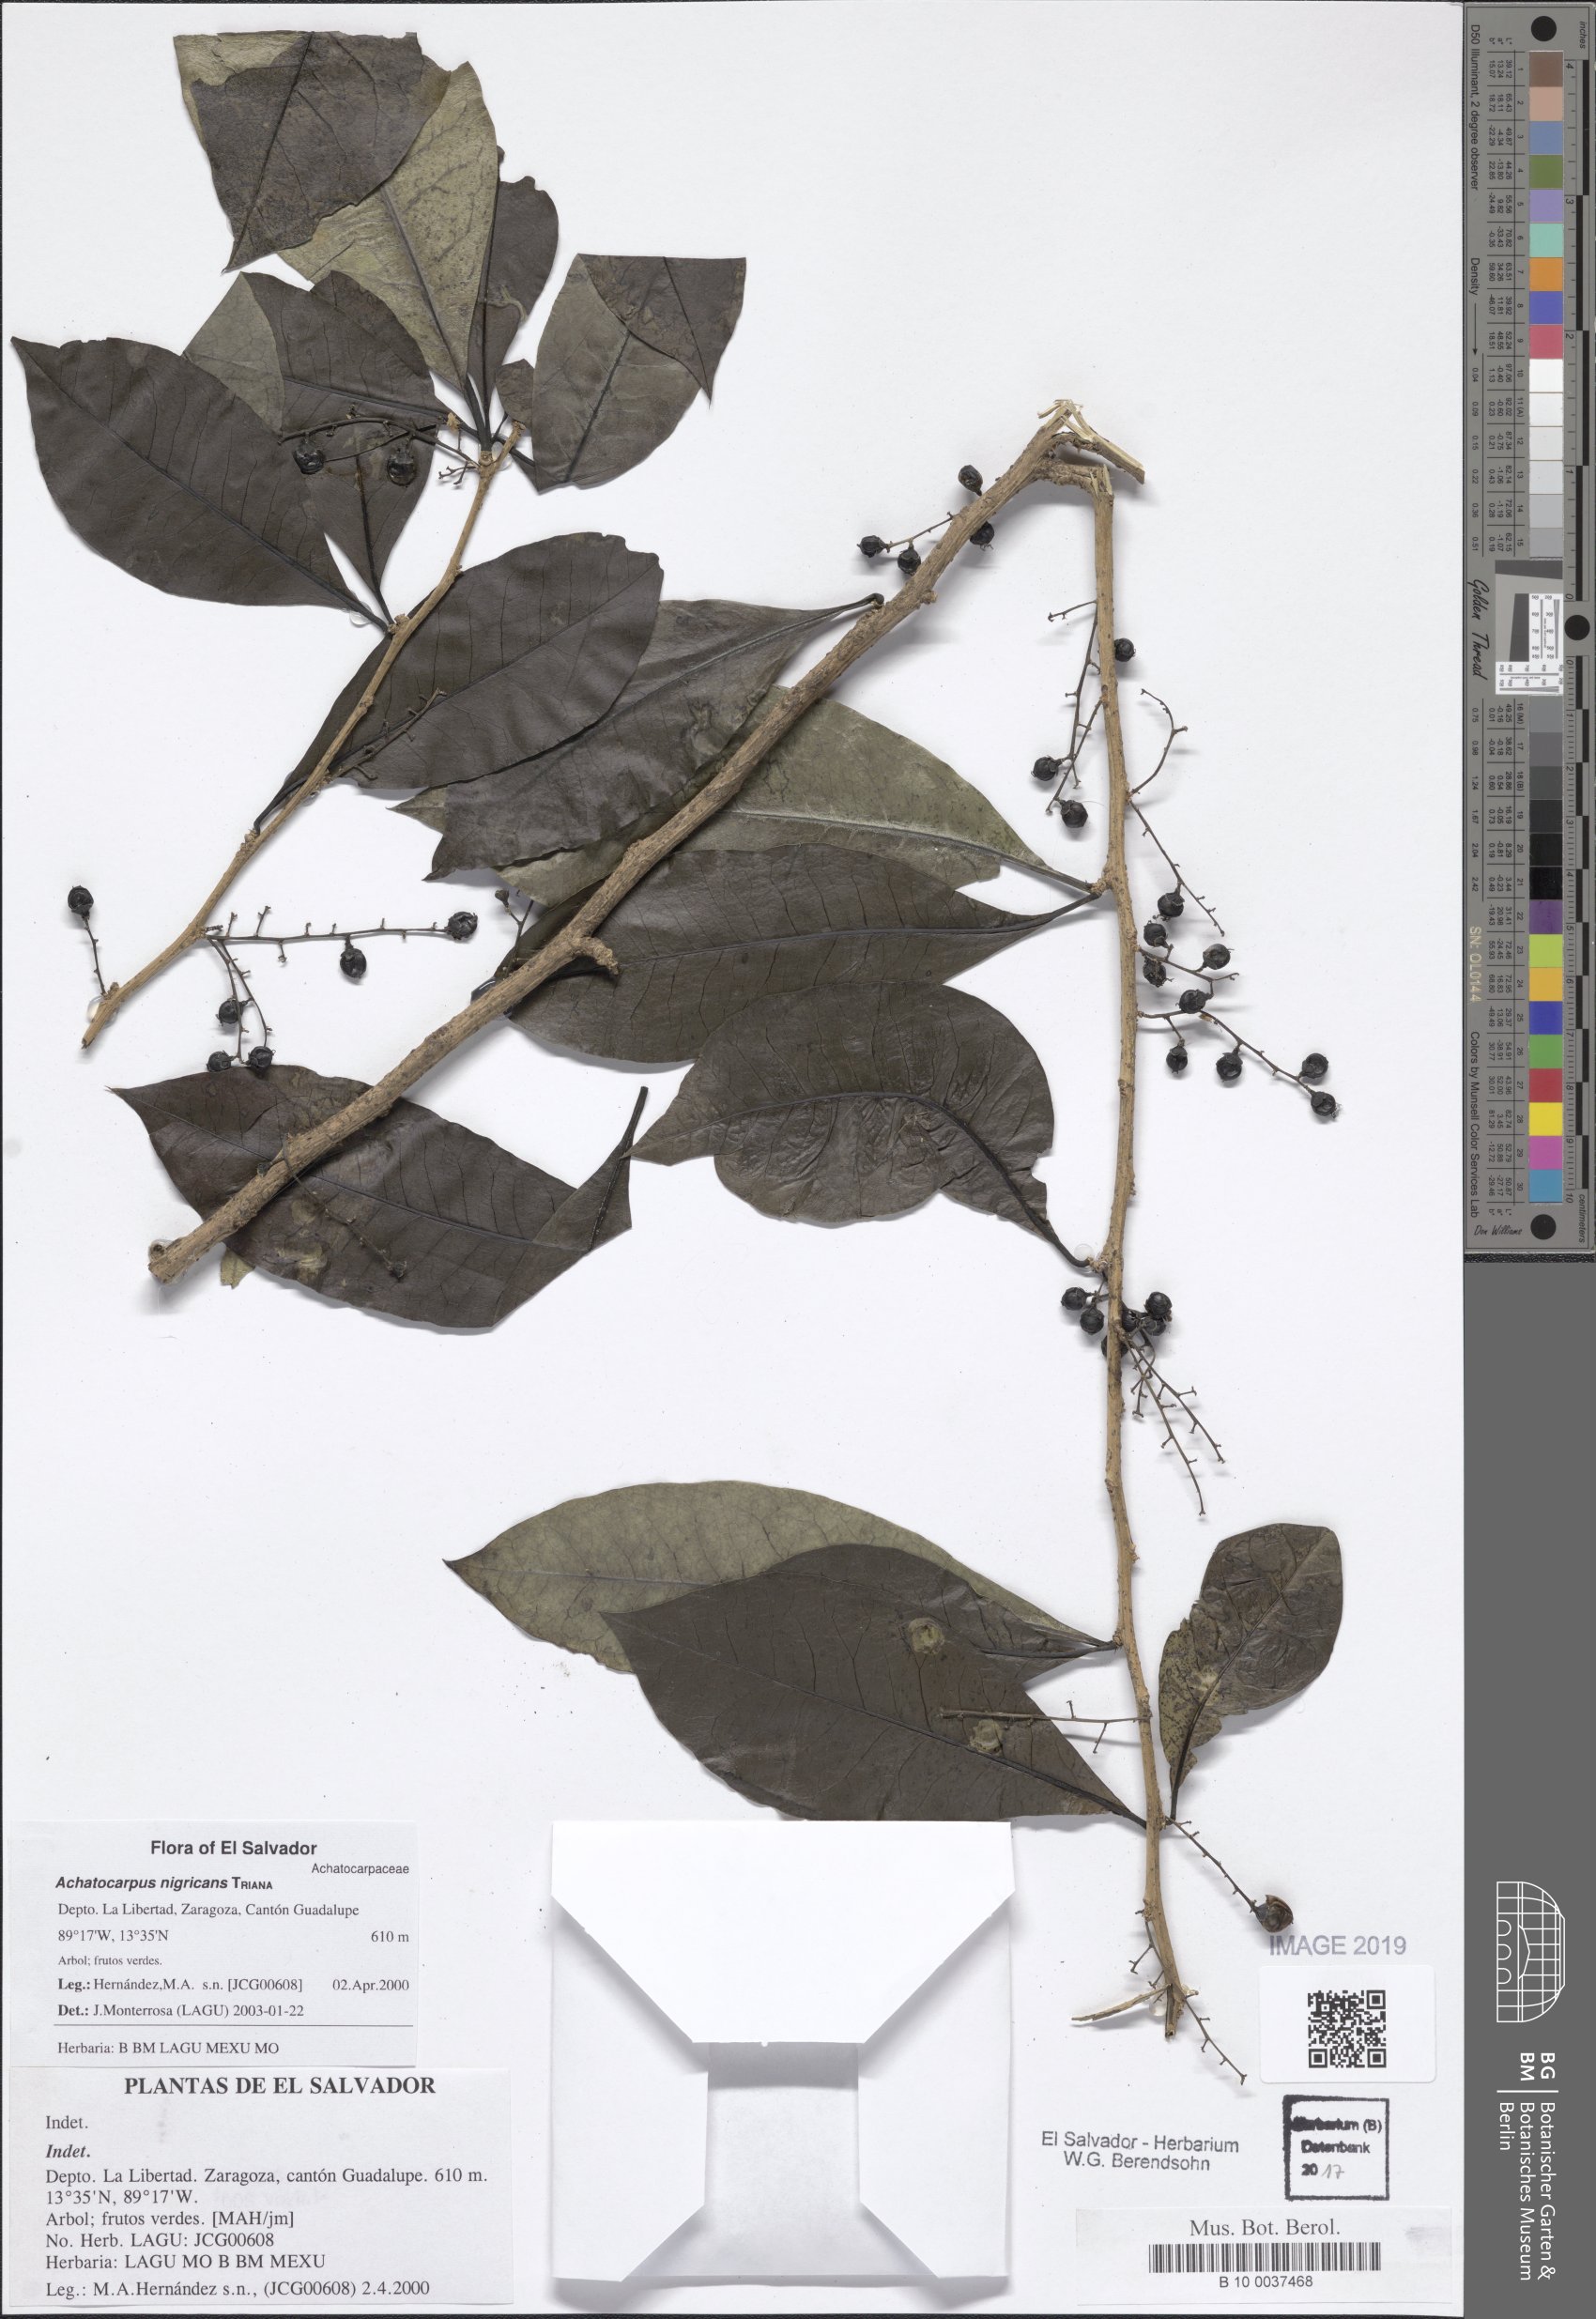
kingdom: Plantae
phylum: Tracheophyta
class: Magnoliopsida
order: Caryophyllales
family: Achatocarpaceae
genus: Achatocarpus
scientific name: Achatocarpus nigricans
